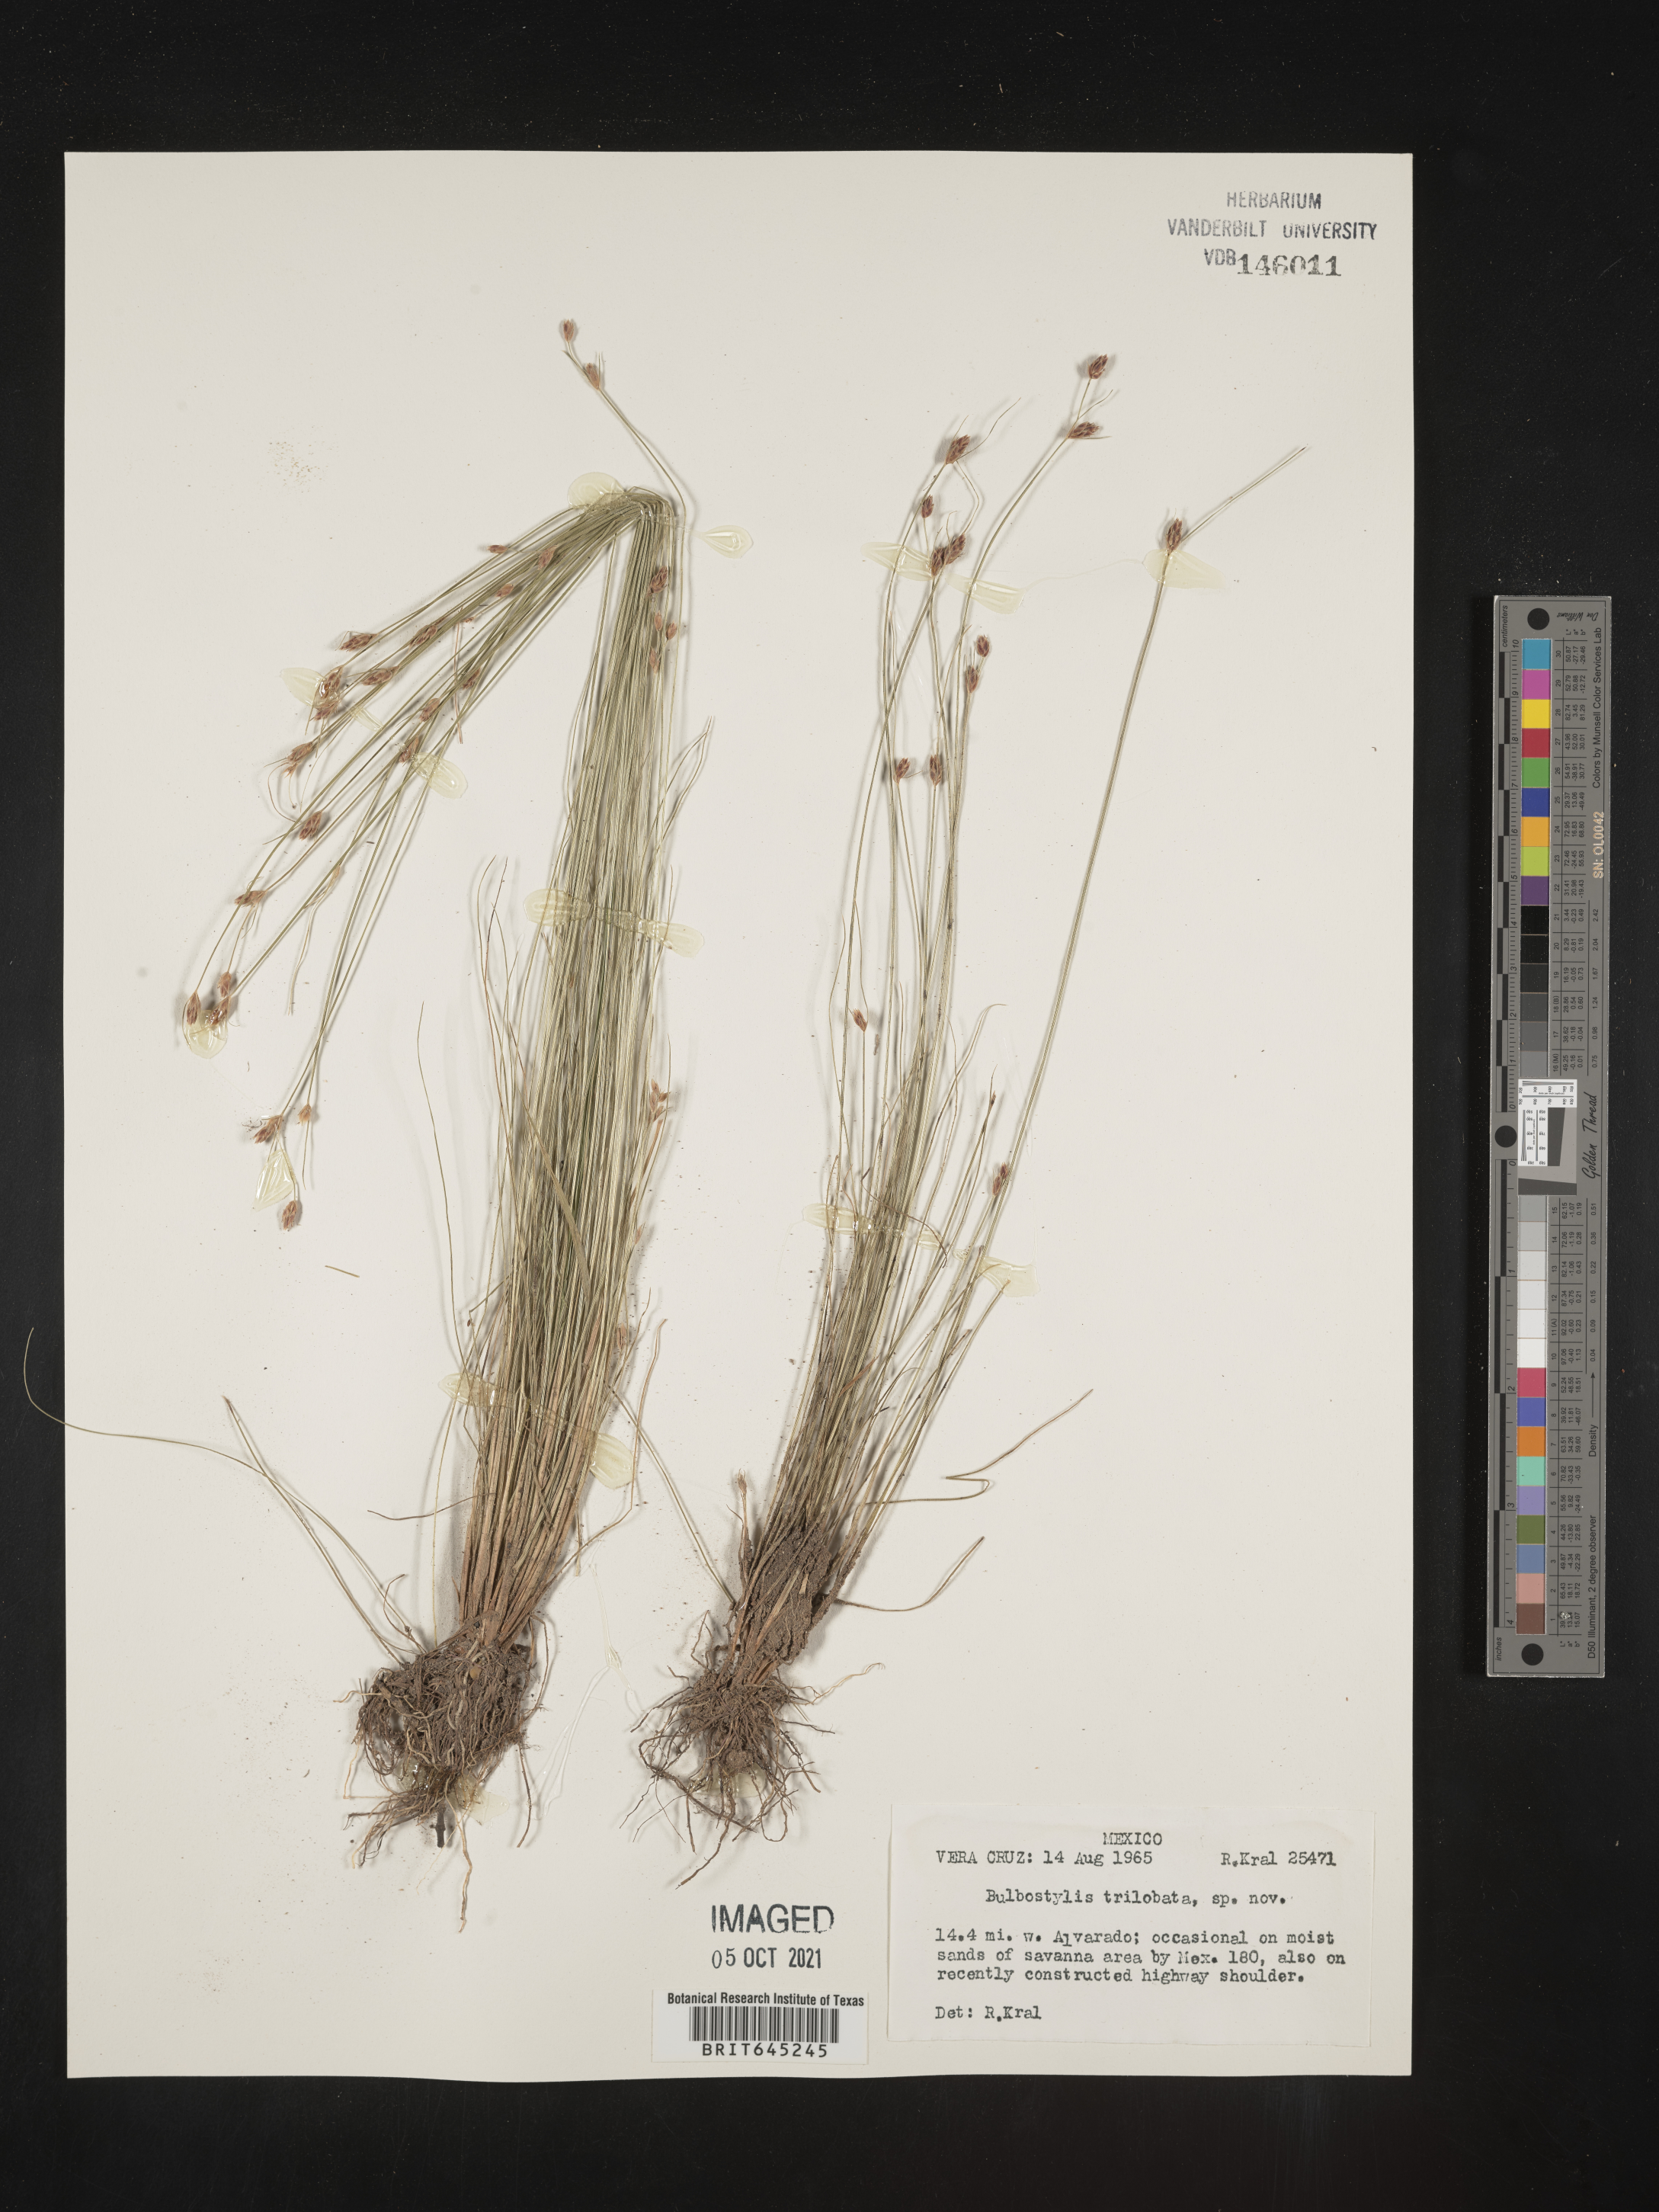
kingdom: Plantae
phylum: Tracheophyta
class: Liliopsida
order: Poales
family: Cyperaceae
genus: Bulbostylis
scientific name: Bulbostylis trilobata
